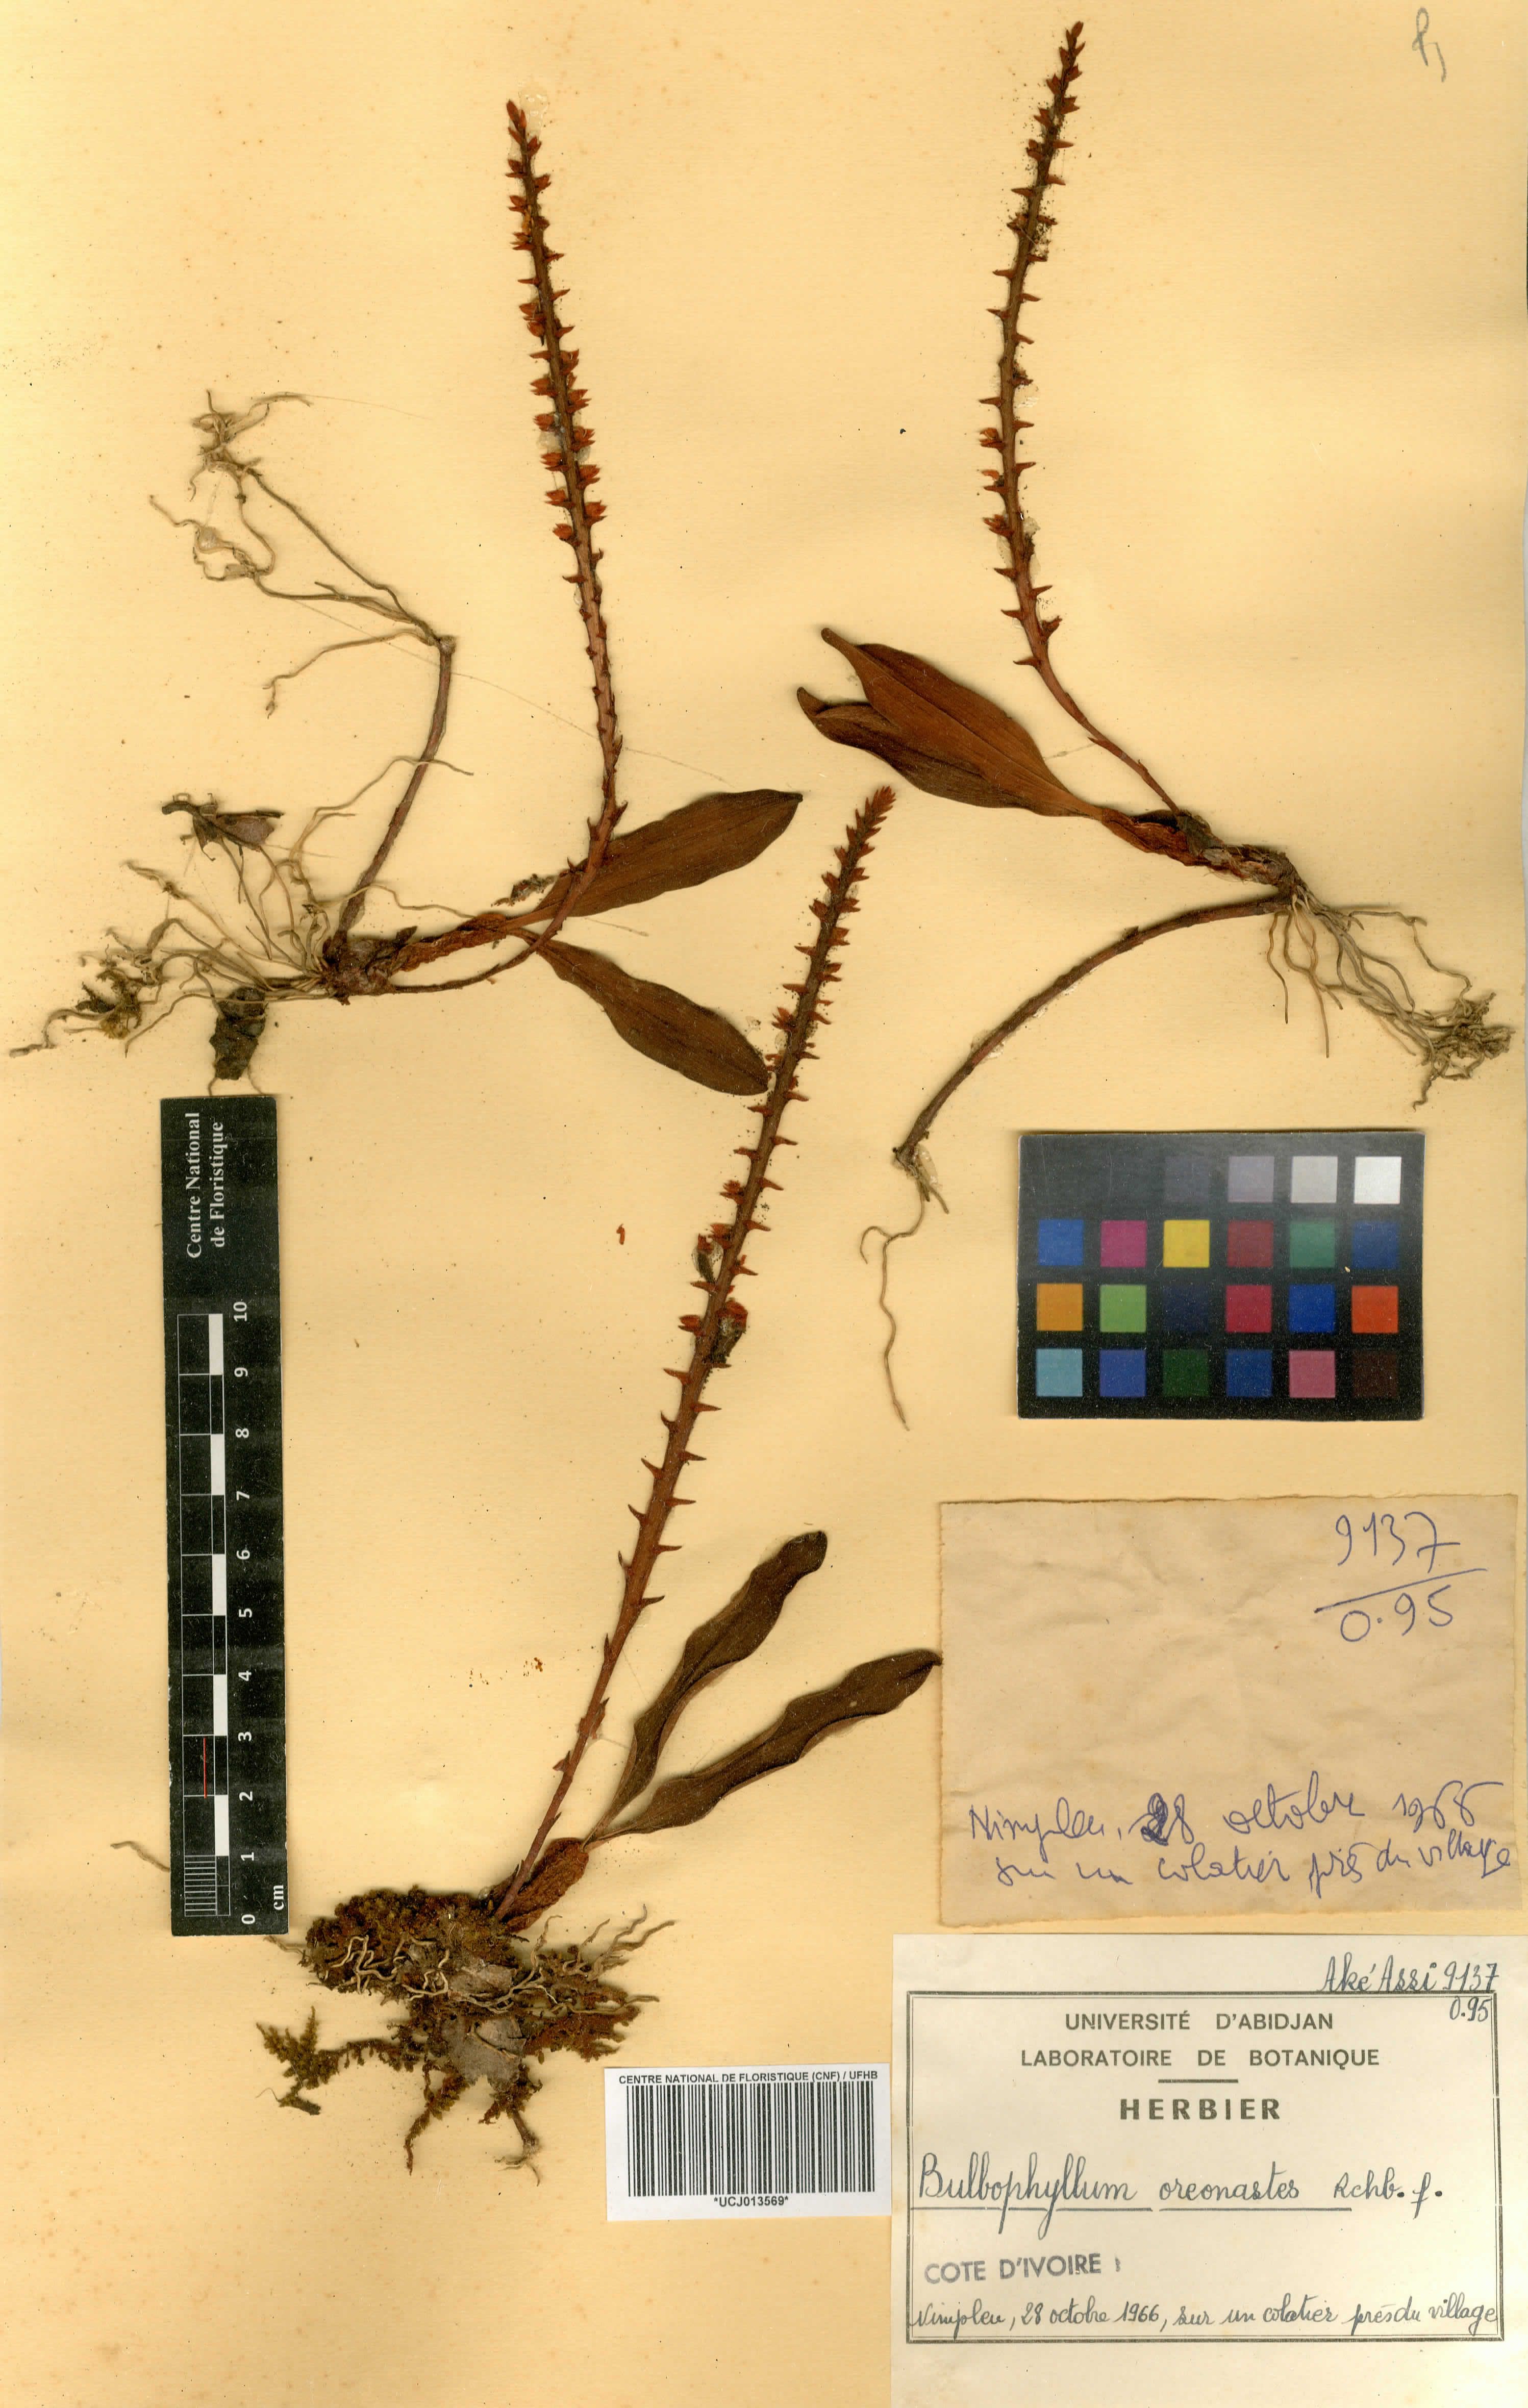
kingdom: Plantae
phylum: Tracheophyta
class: Liliopsida
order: Asparagales
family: Orchidaceae
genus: Bulbophyllum
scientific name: Bulbophyllum oreonastes
